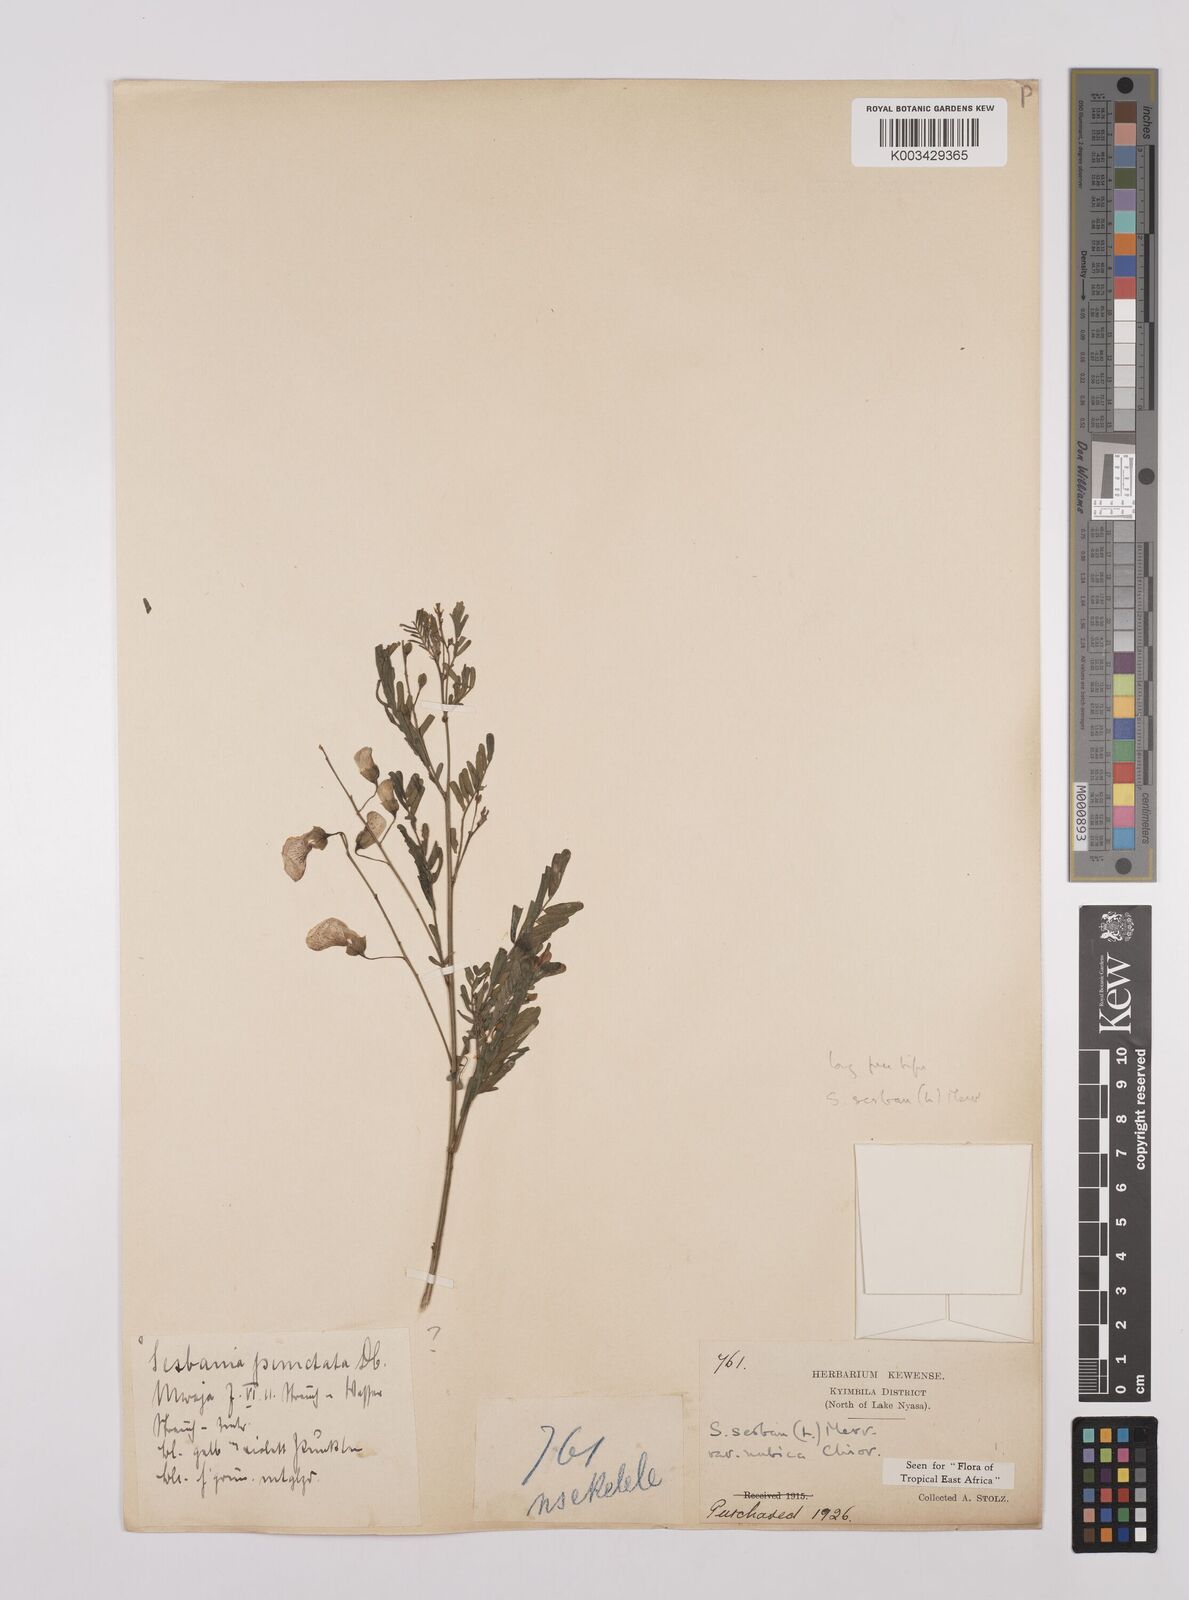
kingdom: Plantae
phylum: Tracheophyta
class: Magnoliopsida
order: Fabales
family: Fabaceae
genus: Sesbania
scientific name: Sesbania sesban
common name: Egyptian sesban
